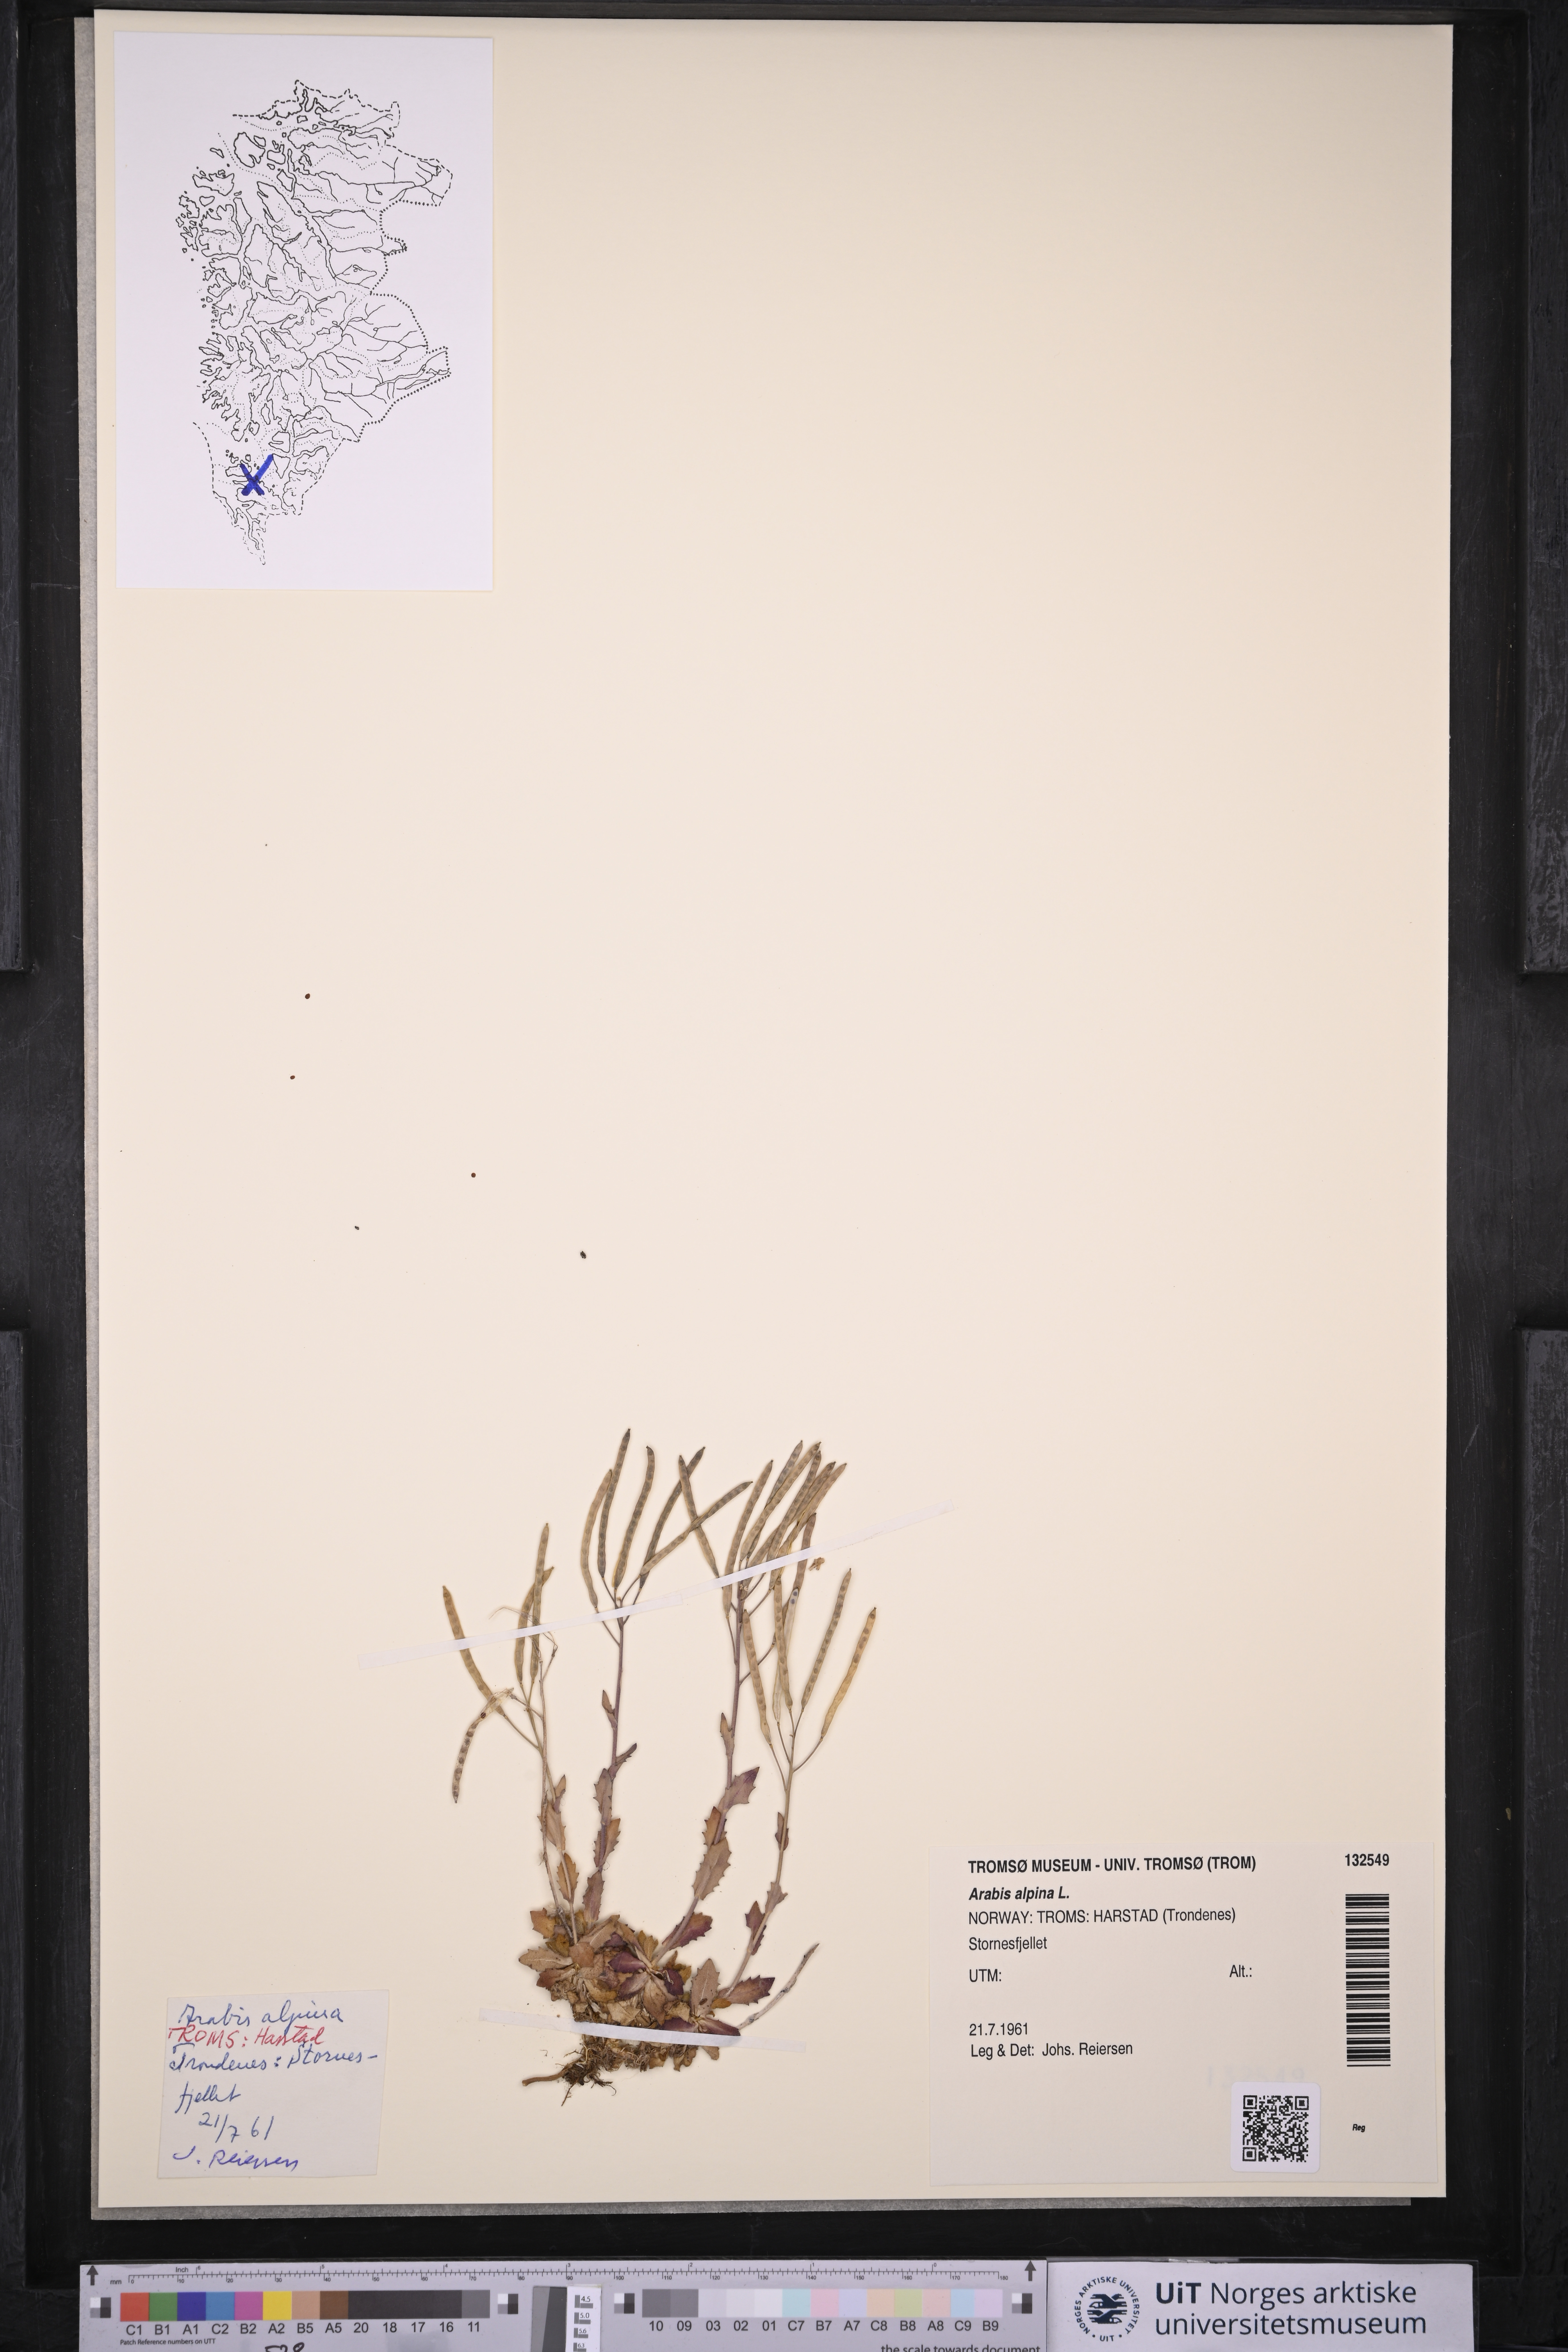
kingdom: Plantae
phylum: Tracheophyta
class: Magnoliopsida
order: Brassicales
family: Brassicaceae
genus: Arabis
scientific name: Arabis alpina
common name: Alpine rock-cress
